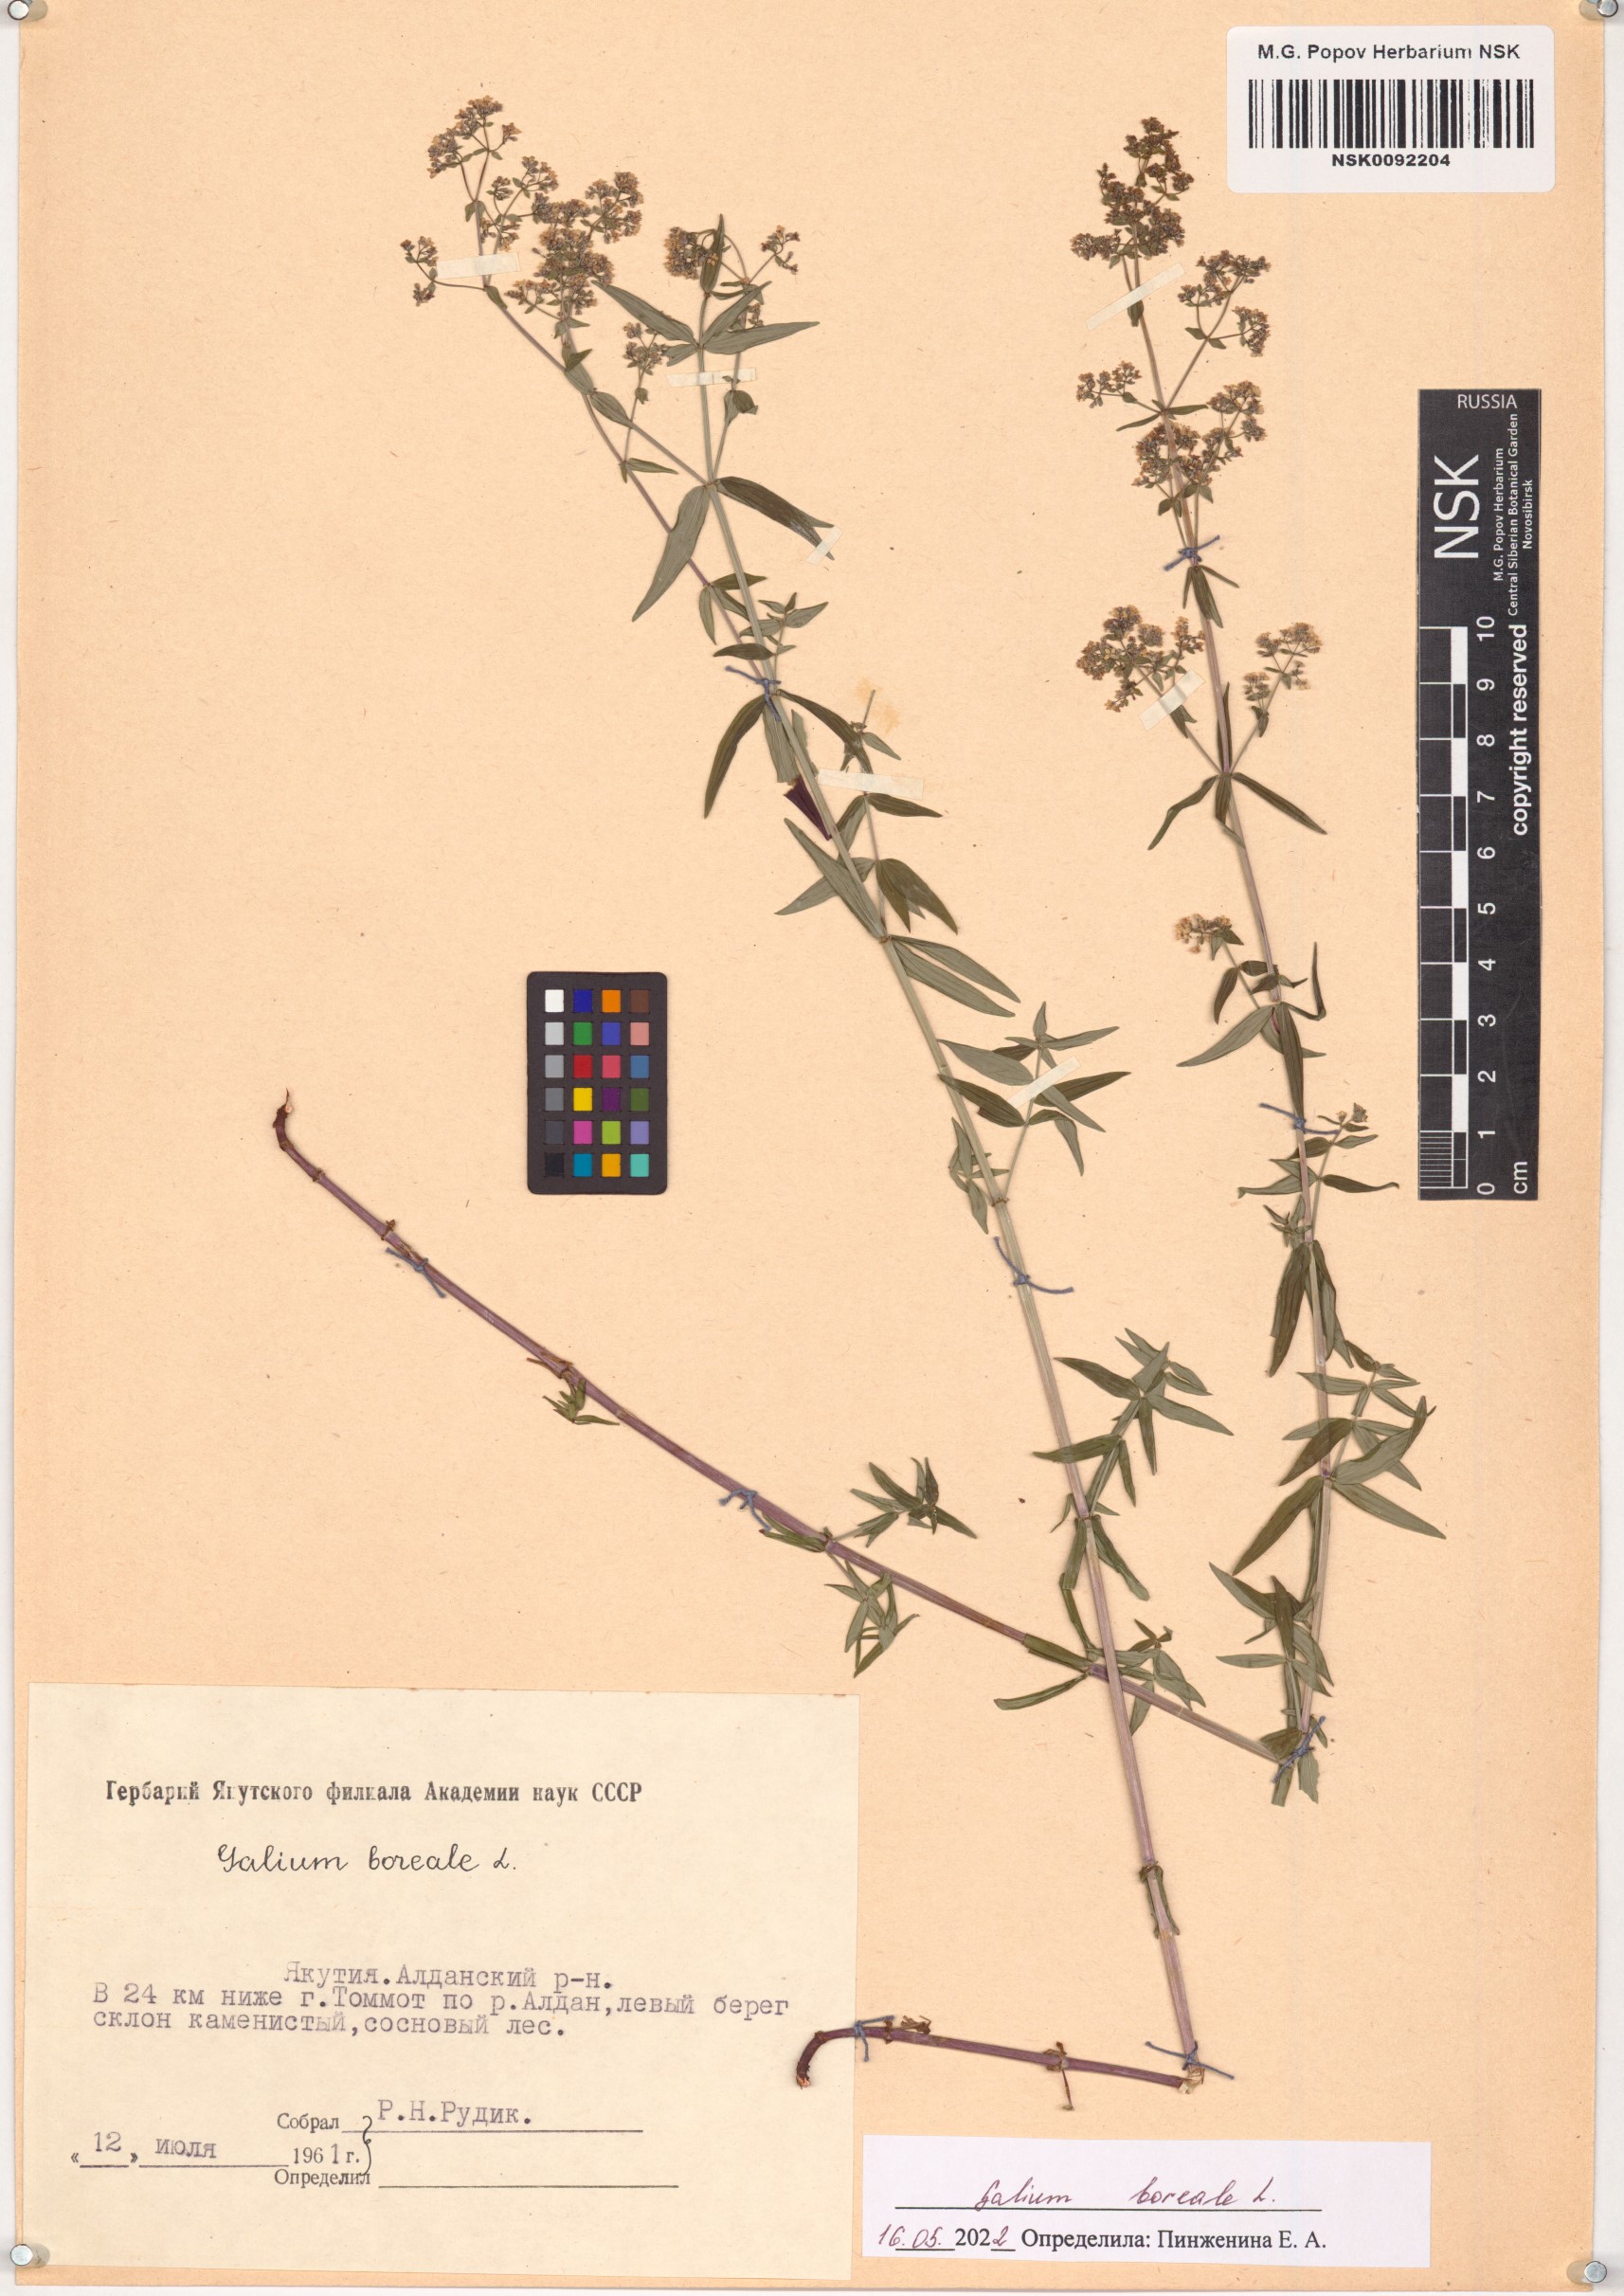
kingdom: Plantae
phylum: Tracheophyta
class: Magnoliopsida
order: Gentianales
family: Rubiaceae
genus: Galium
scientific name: Galium boreale
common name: Northern bedstraw
